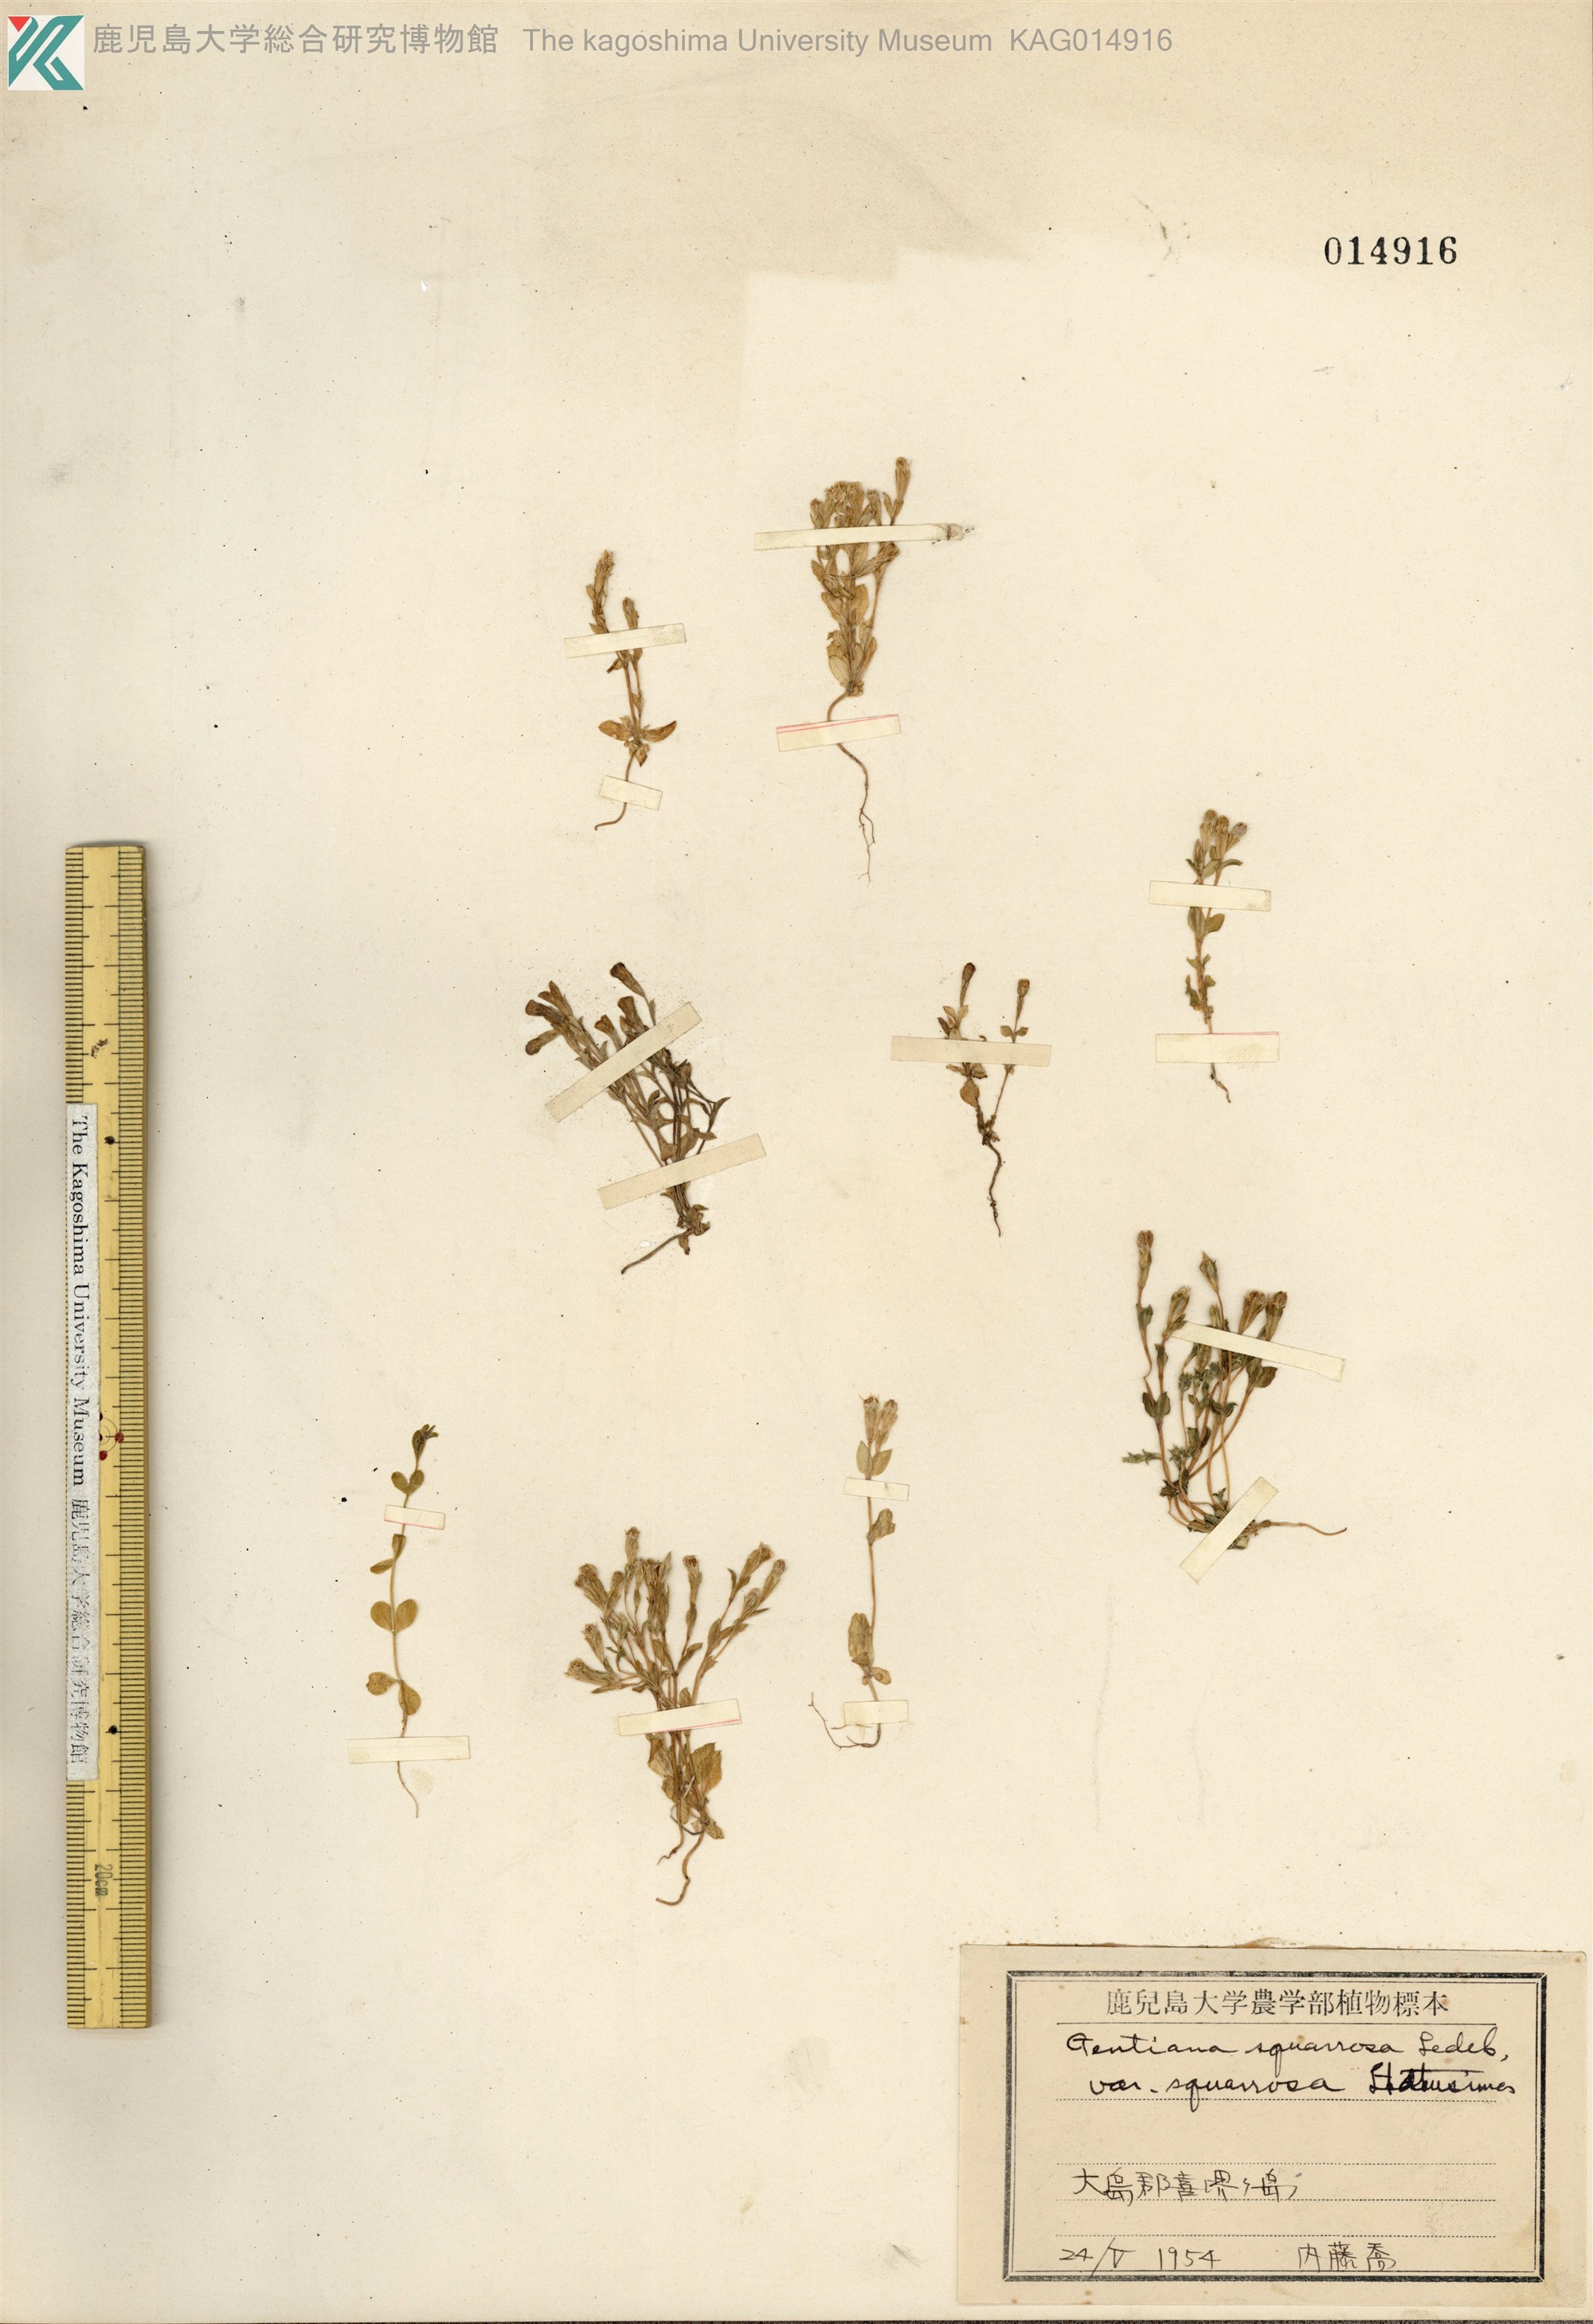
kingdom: Plantae
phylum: Tracheophyta
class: Magnoliopsida
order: Gentianales
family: Gentianaceae
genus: Gentiana
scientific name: Gentiana satsunanensis
